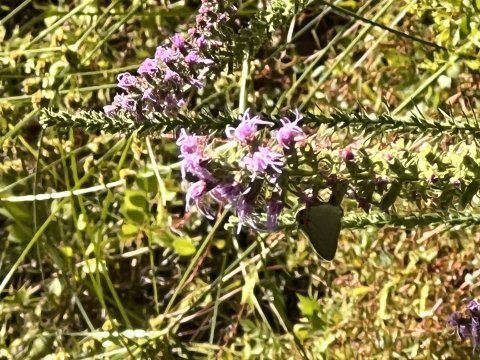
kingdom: Animalia
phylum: Arthropoda
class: Insecta
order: Lepidoptera
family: Lycaenidae
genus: Strymon
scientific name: Strymon melinus
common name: Gray Hairstreak
